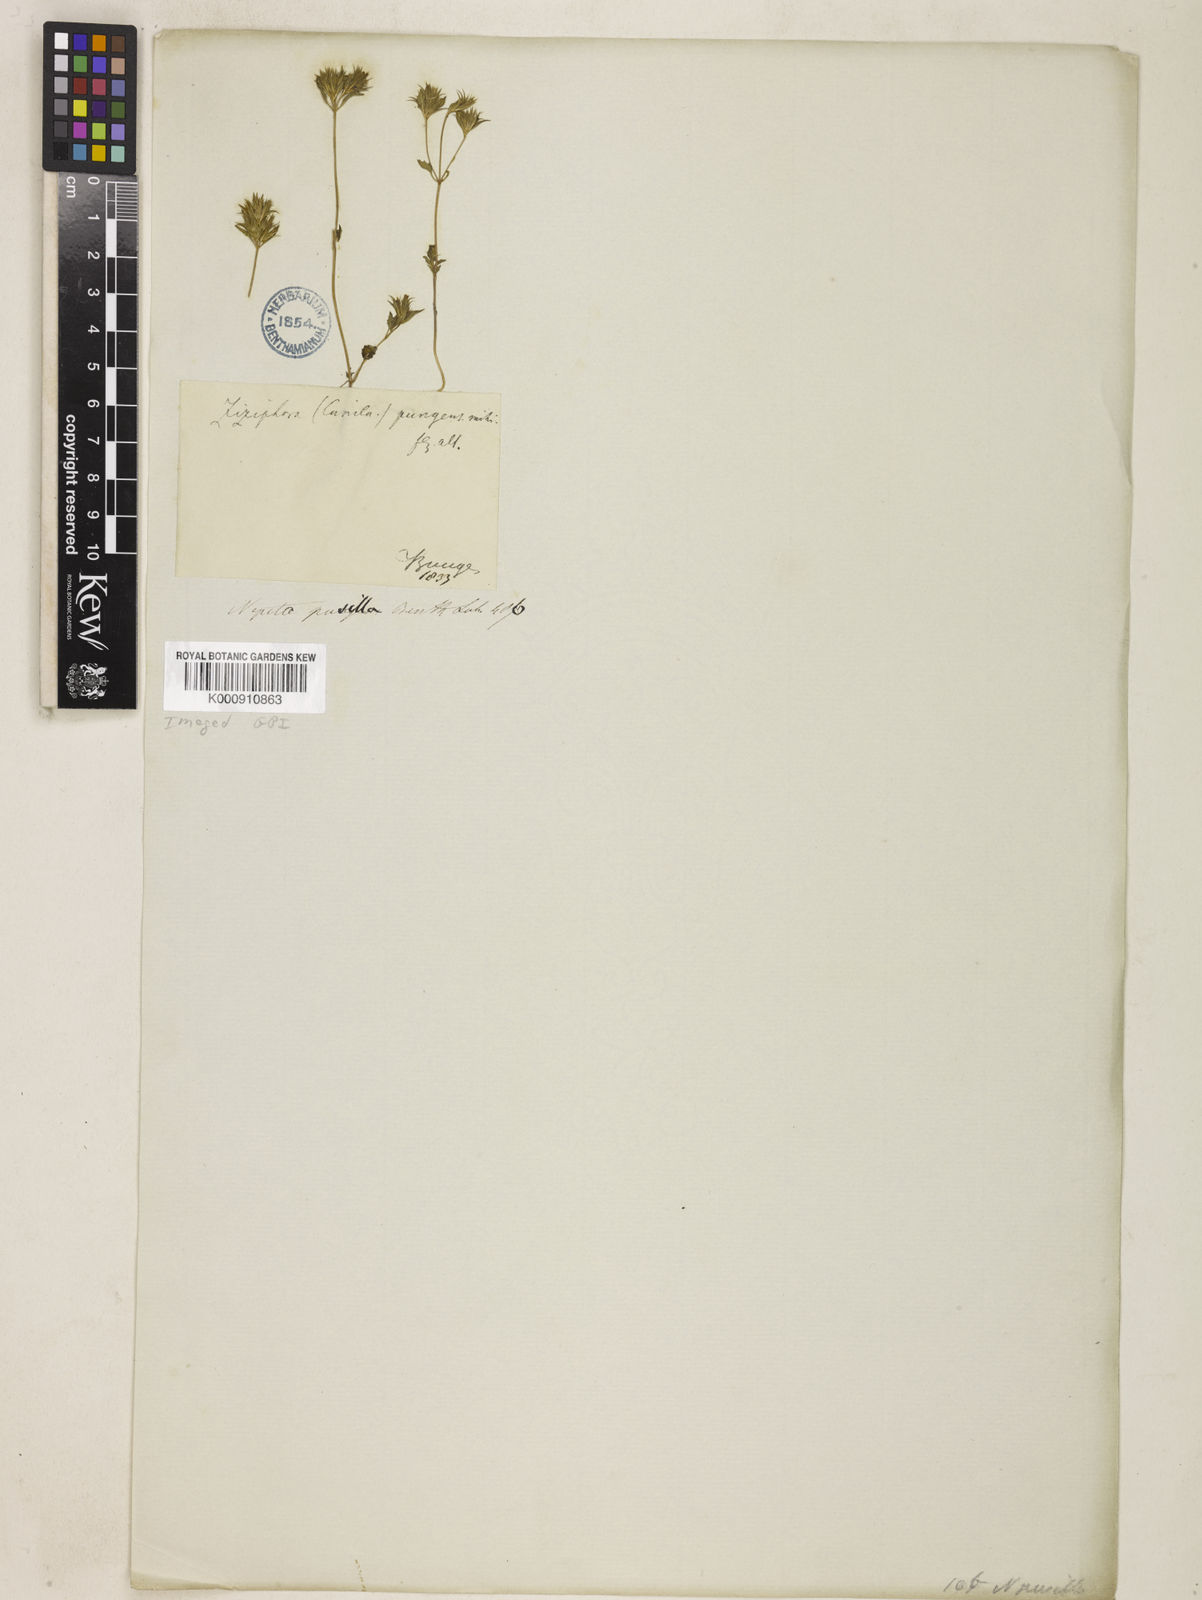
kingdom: Plantae
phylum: Tracheophyta
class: Magnoliopsida
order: Lamiales
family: Lamiaceae
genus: Nepeta
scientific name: Nepeta pungens
